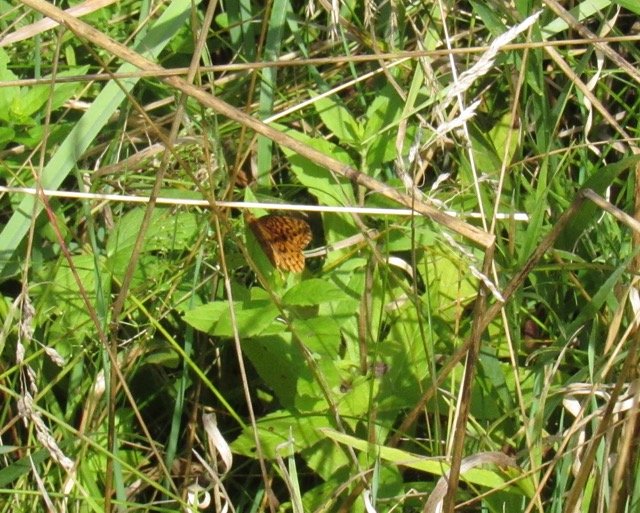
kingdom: Animalia
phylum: Arthropoda
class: Insecta
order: Lepidoptera
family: Nymphalidae
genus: Clossiana
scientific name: Clossiana toddi
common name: Meadow Fritillary
